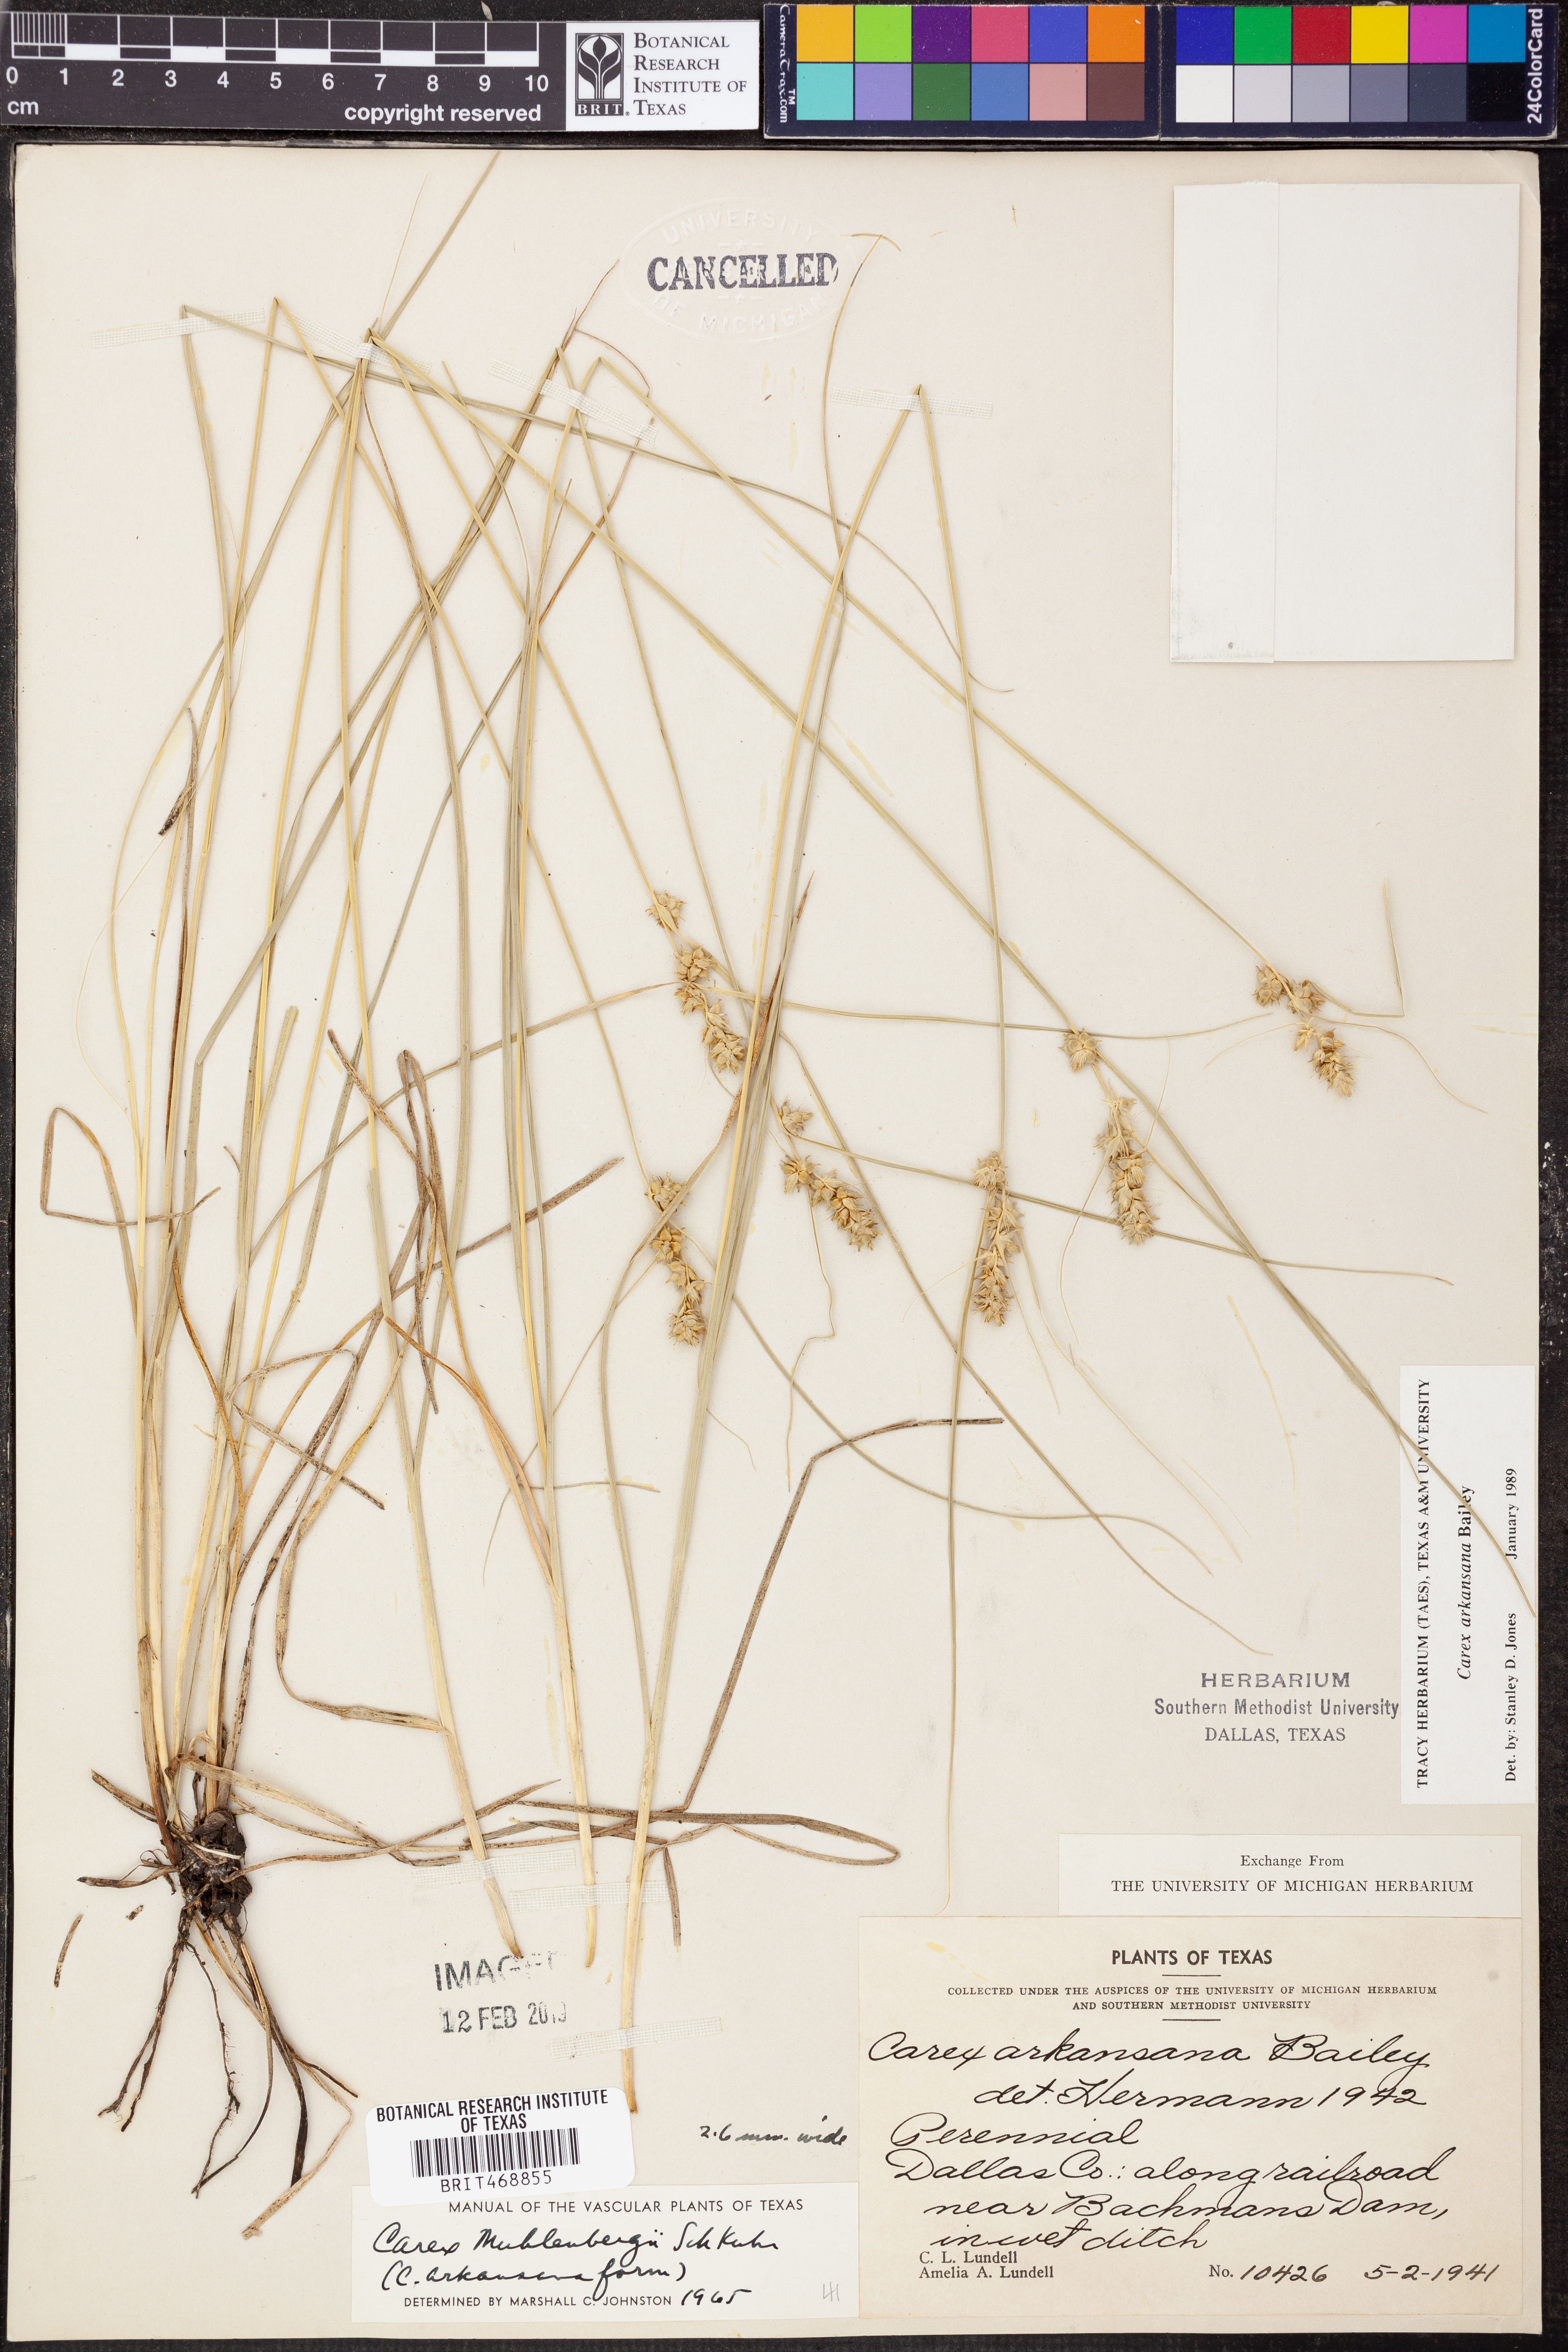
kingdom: Plantae
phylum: Tracheophyta
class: Liliopsida
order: Poales
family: Cyperaceae
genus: Carex
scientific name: Carex arkansana
